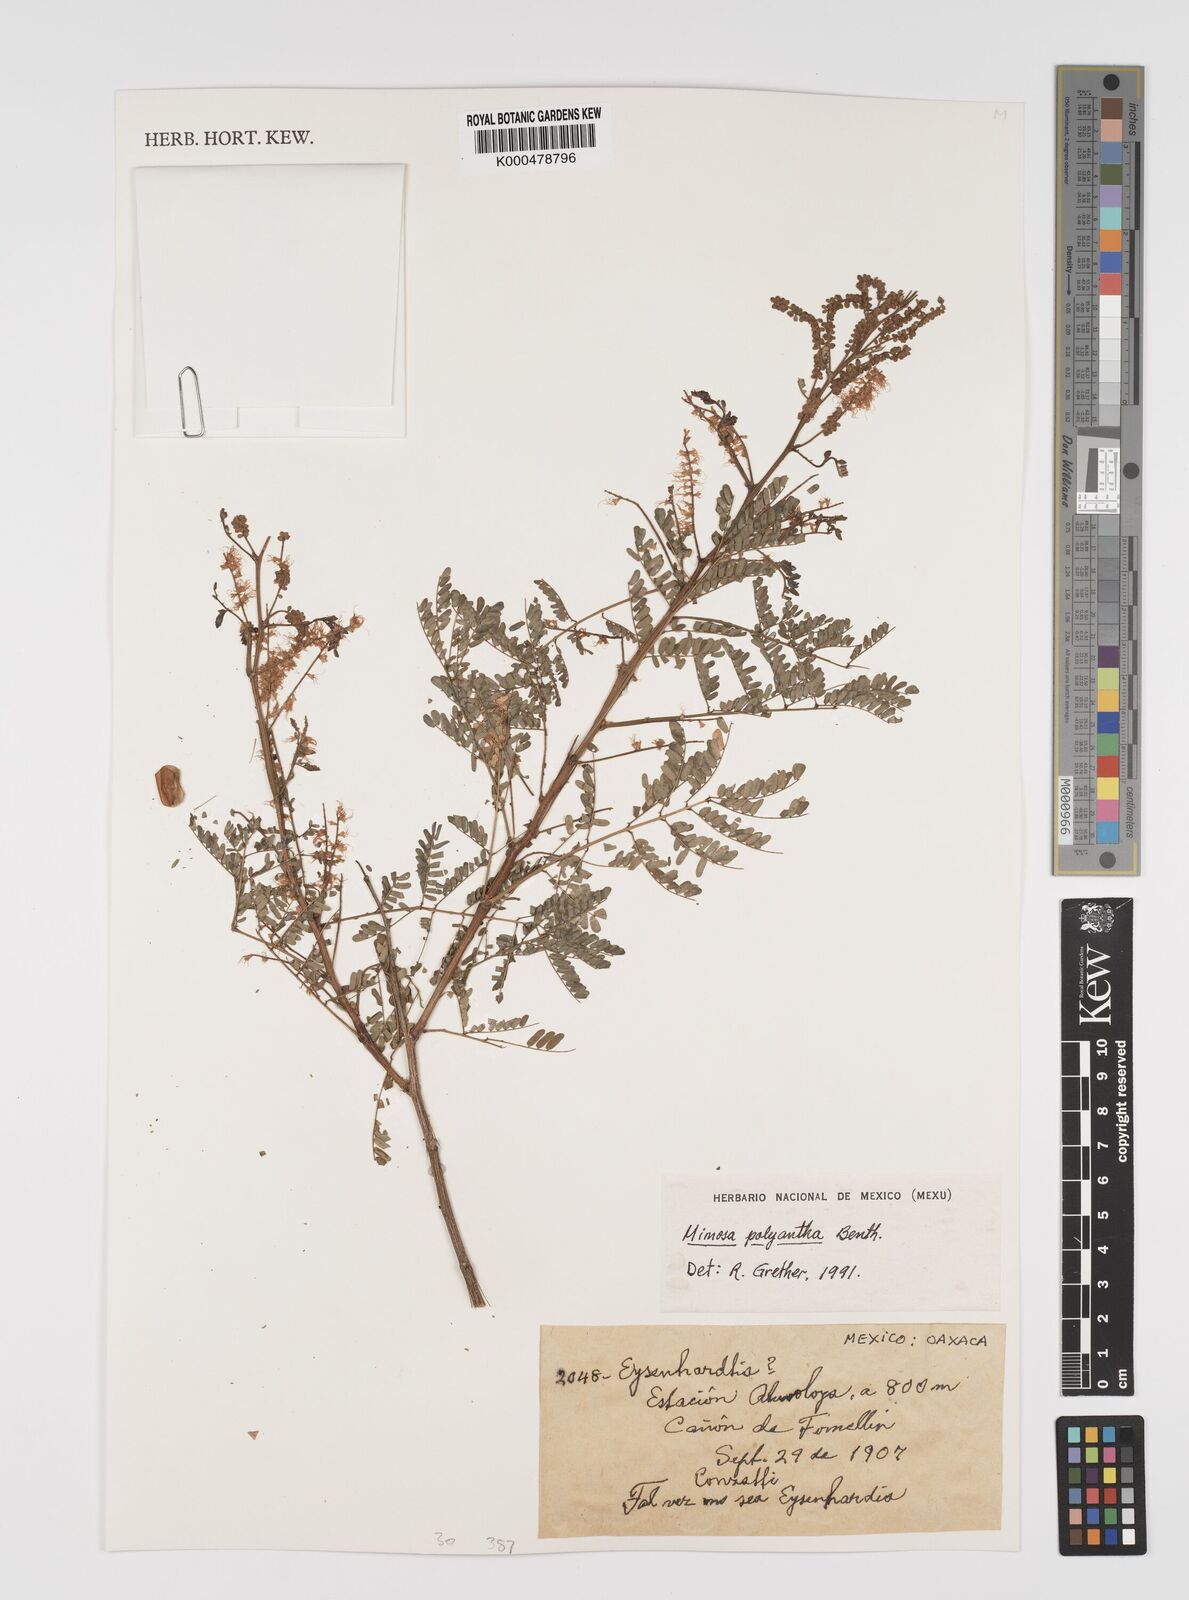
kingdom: Plantae
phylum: Tracheophyta
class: Magnoliopsida
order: Fabales
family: Fabaceae
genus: Mimosa
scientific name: Mimosa polyantha
